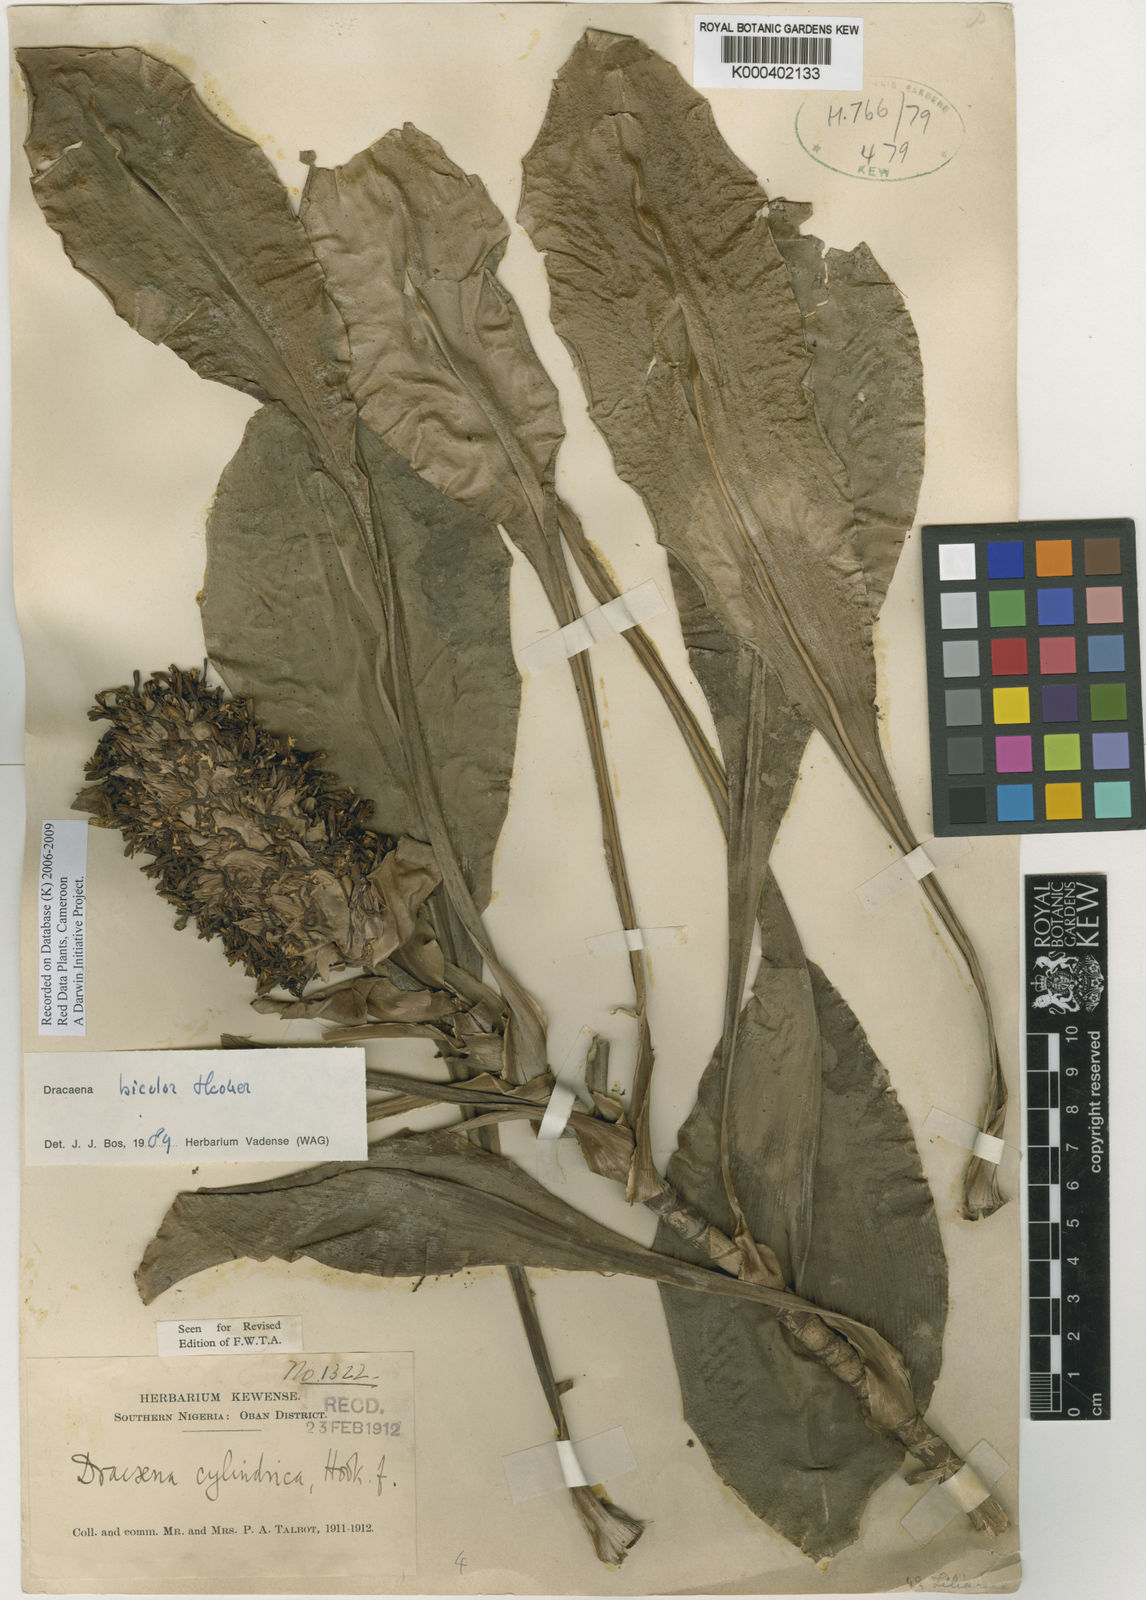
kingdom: Plantae
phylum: Tracheophyta
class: Liliopsida
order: Asparagales
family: Asparagaceae
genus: Dracaena
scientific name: Dracaena bicolor
